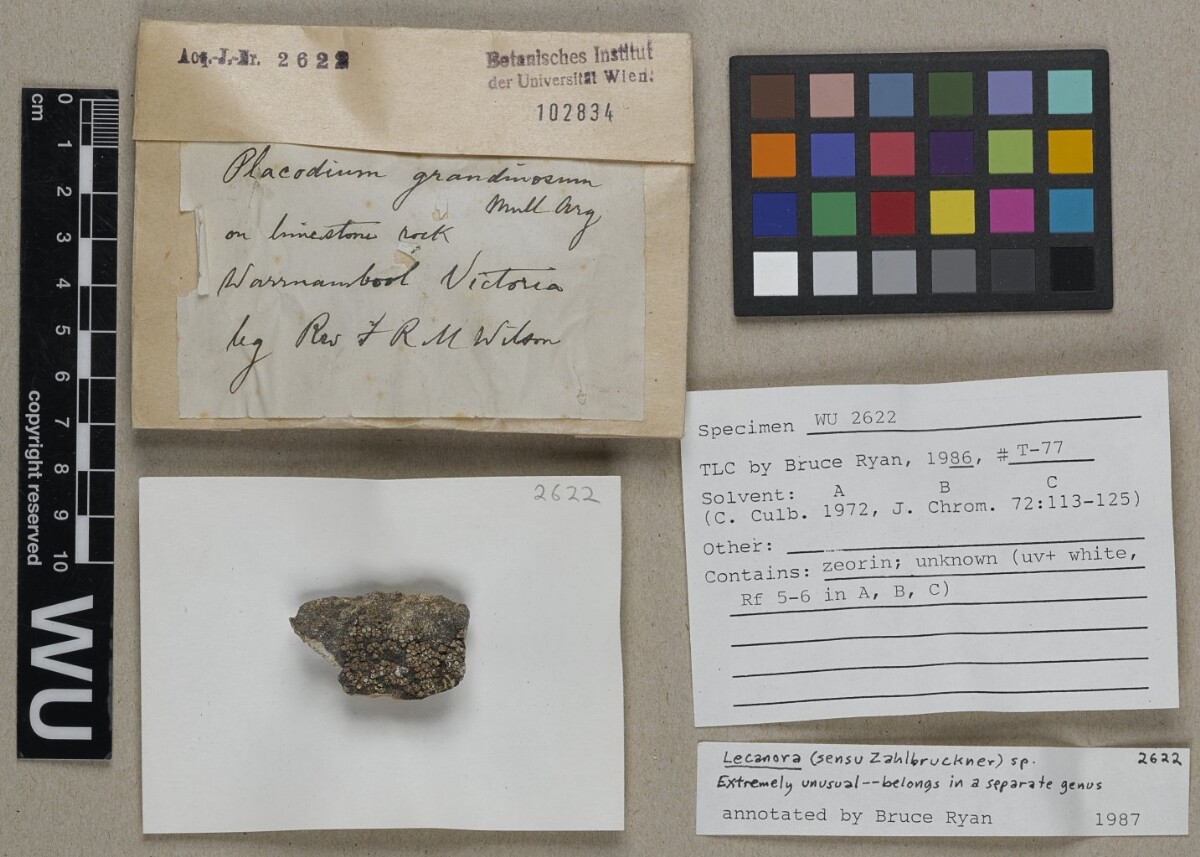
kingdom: Fungi
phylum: Ascomycota
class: Lecanoromycetes
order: Lecanorales
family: Lecanoraceae
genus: Lecanora
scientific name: Lecanora
